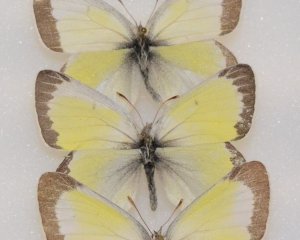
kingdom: Animalia
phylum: Arthropoda
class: Insecta
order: Lepidoptera
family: Pieridae
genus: Colias
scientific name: Colias pelidne
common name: Pelidne Sulphur
